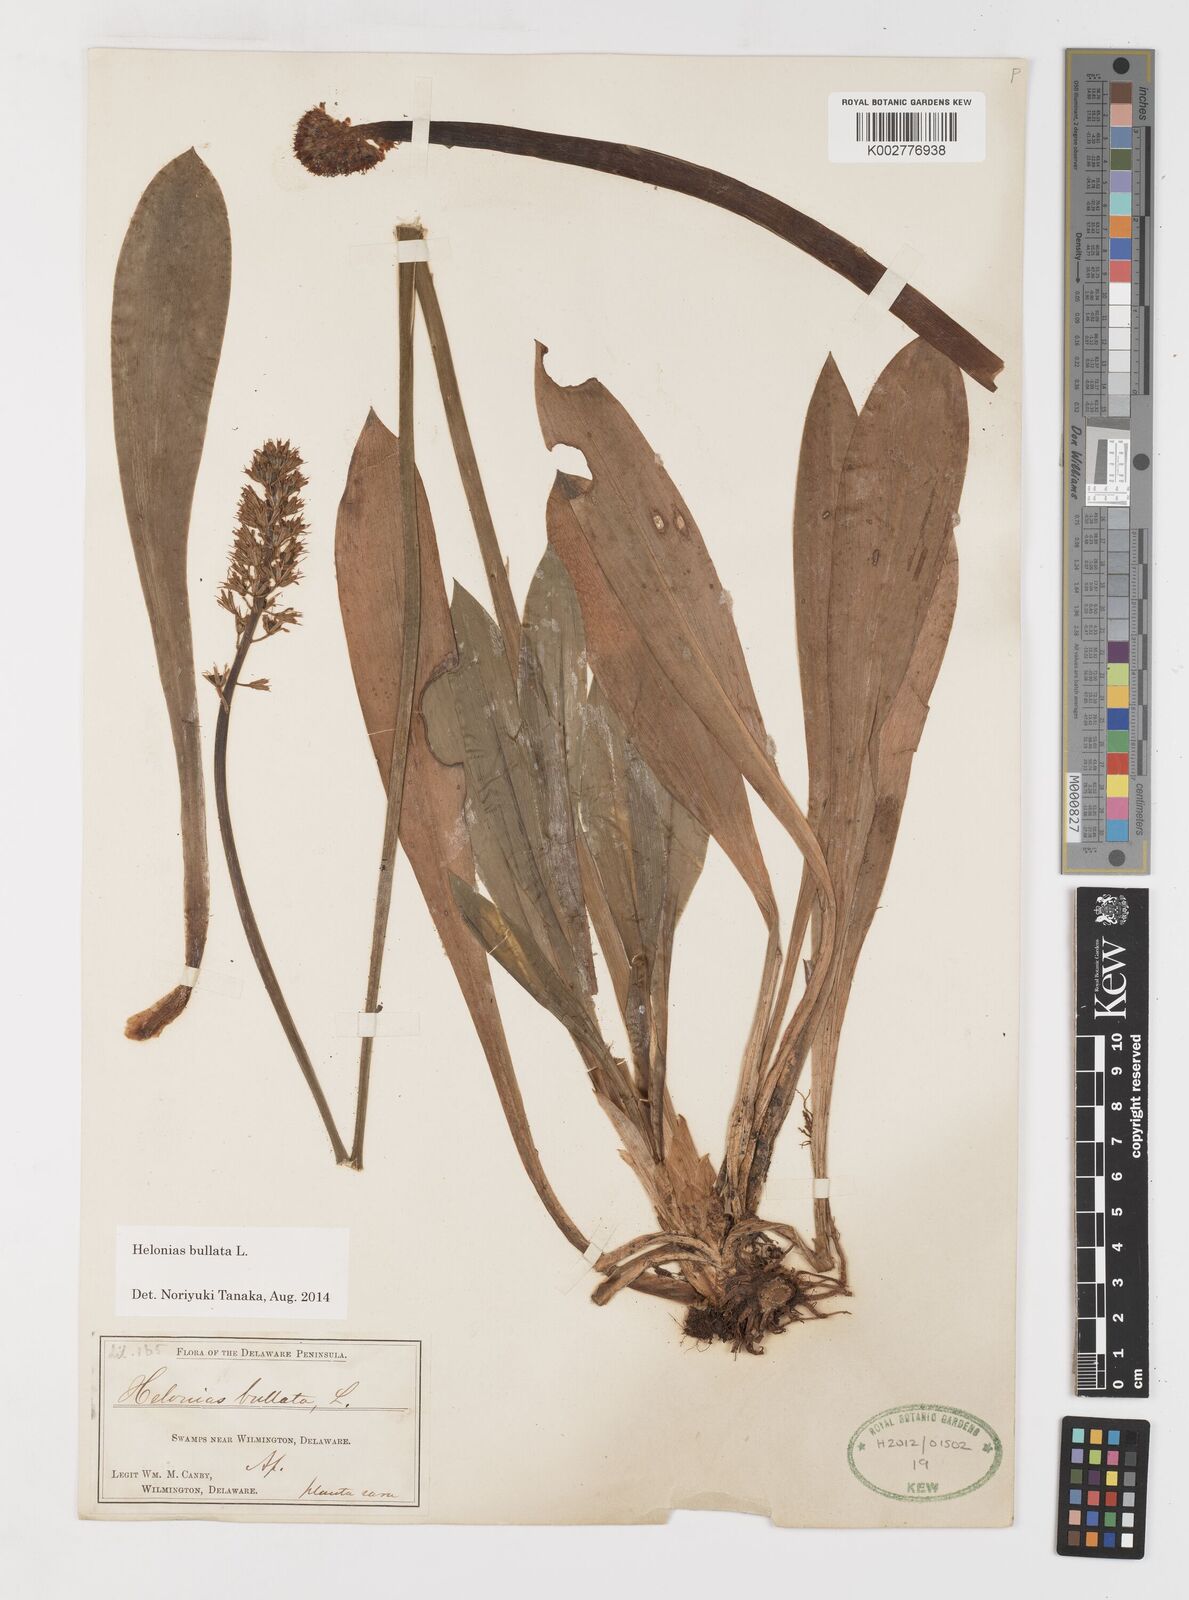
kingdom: Plantae
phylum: Tracheophyta
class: Liliopsida
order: Liliales
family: Melanthiaceae
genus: Helonias
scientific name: Helonias bullata
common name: Swamp-pink
